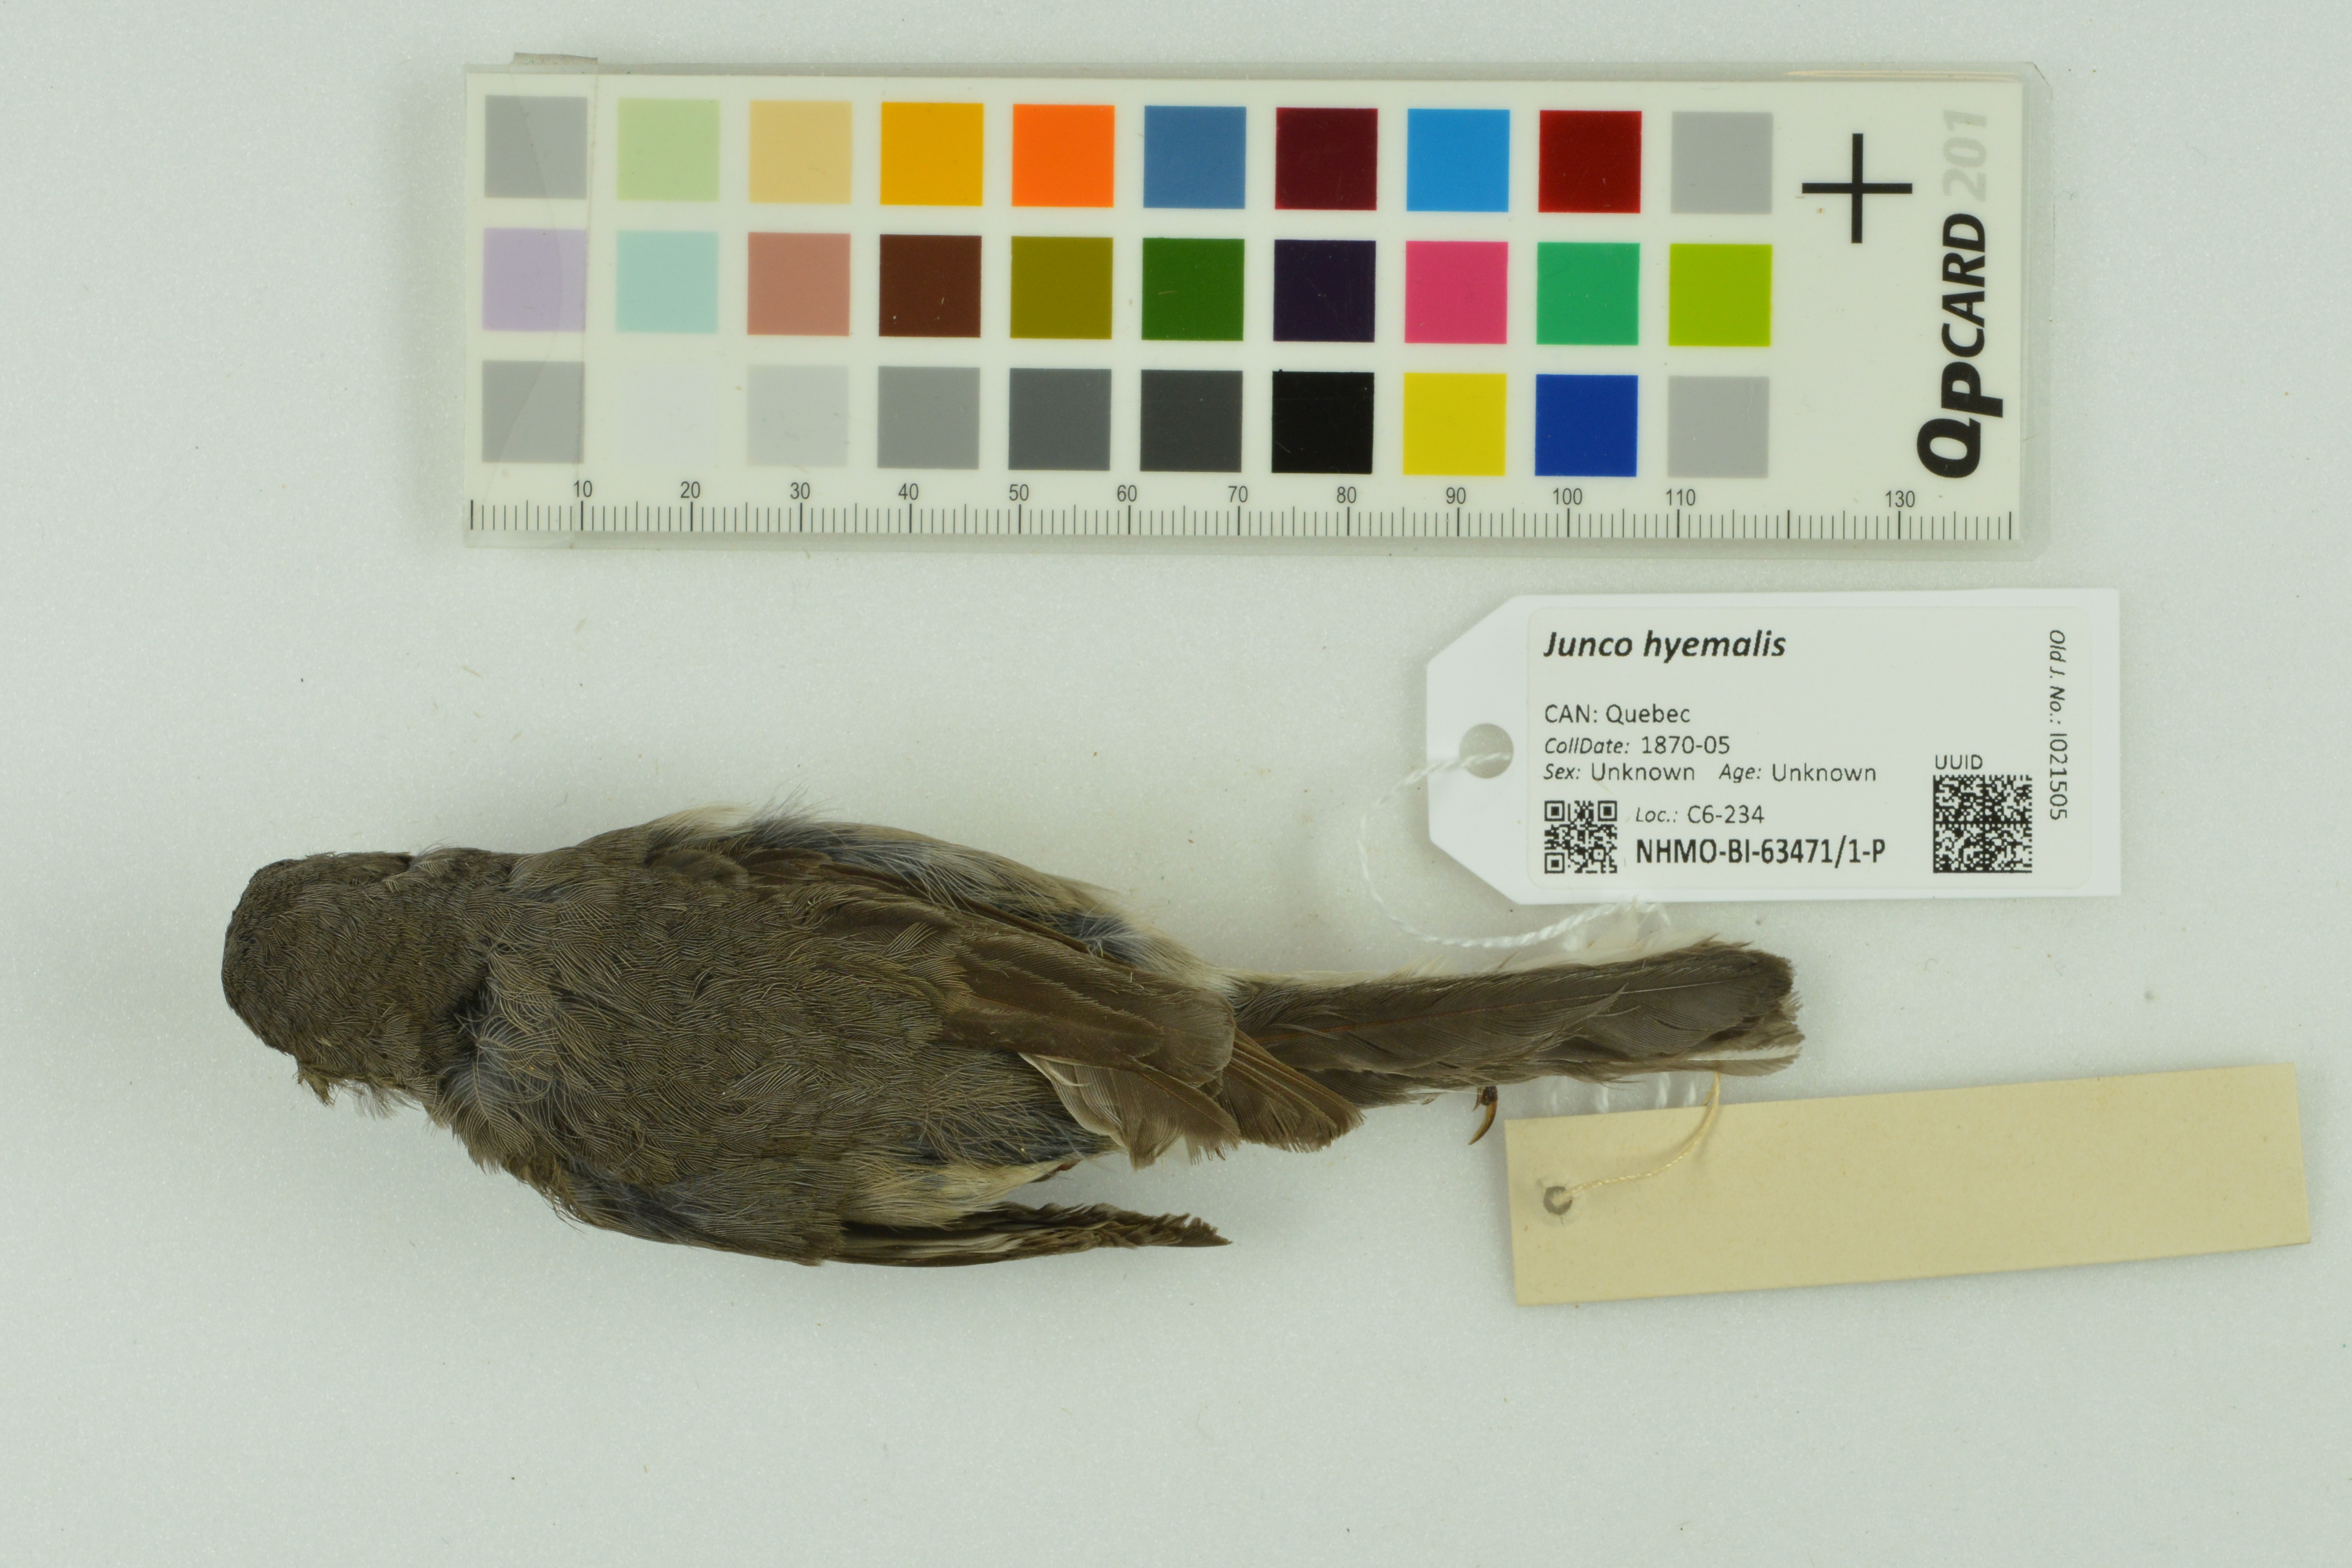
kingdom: Animalia
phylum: Chordata
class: Aves
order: Passeriformes
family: Passerellidae
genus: Junco
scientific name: Junco hyemalis
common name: Dark-eyed junco
